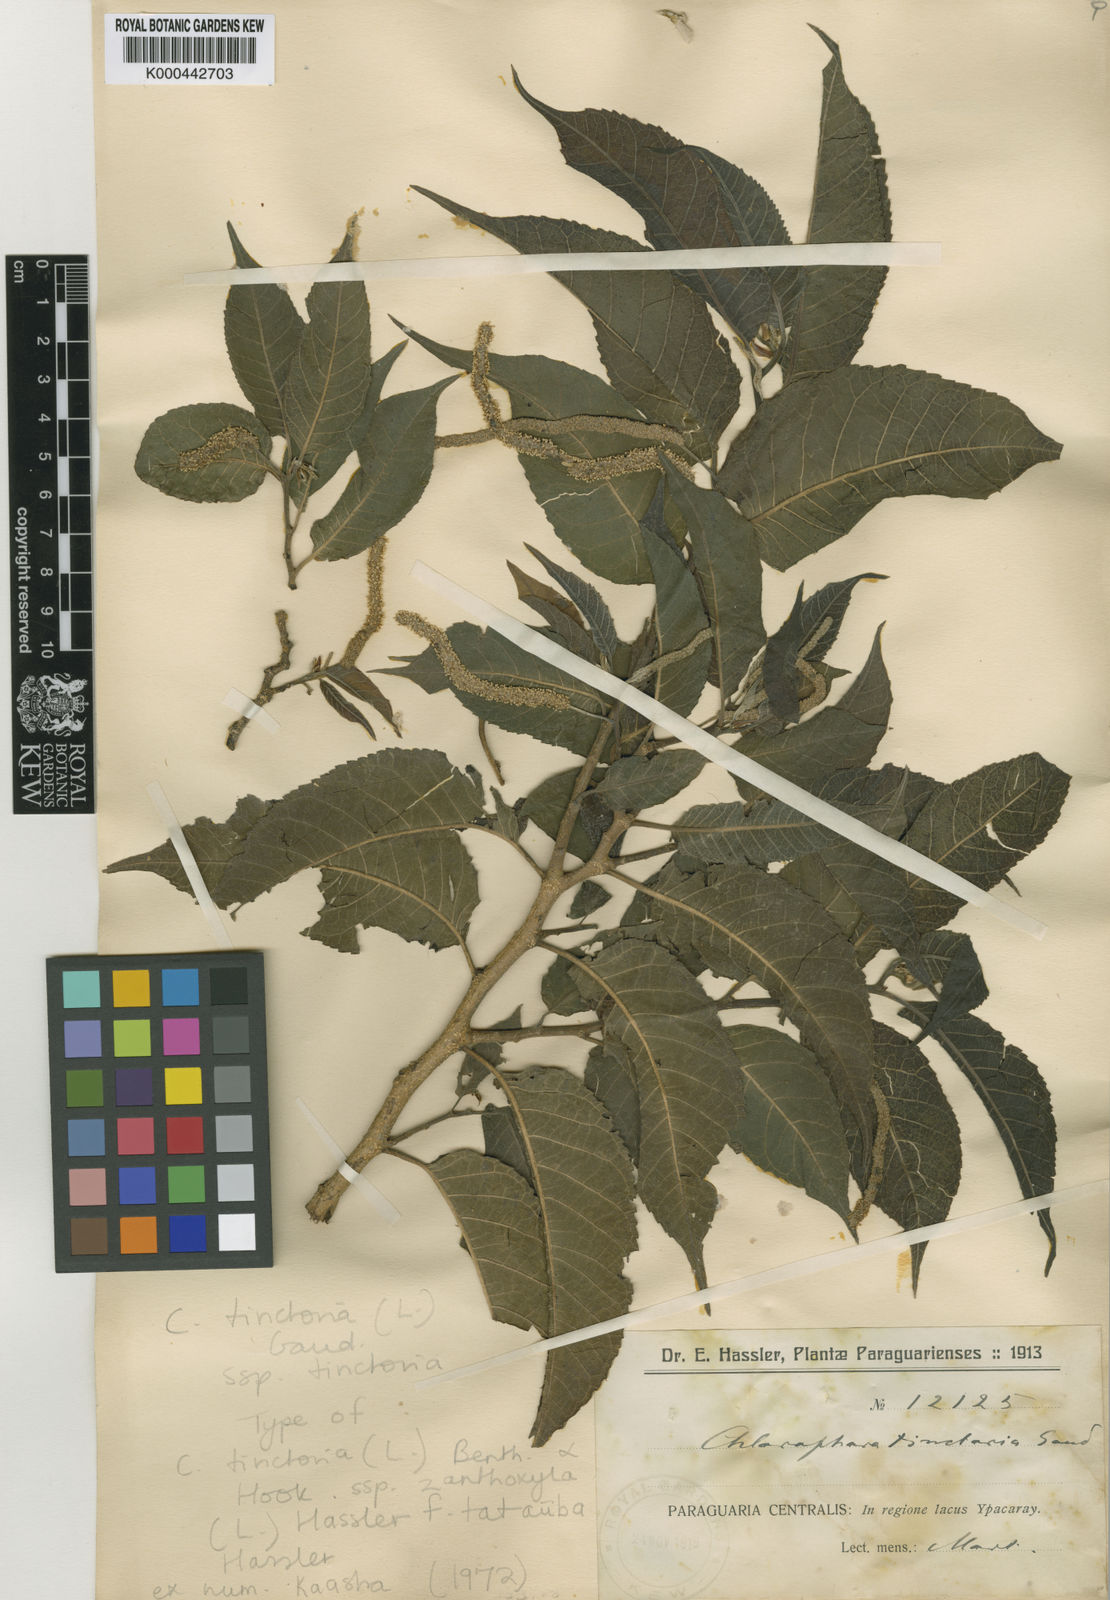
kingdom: Plantae
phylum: Tracheophyta
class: Magnoliopsida
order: Rosales
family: Moraceae
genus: Maclura
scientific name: Maclura tinctoria
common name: Old fustic
